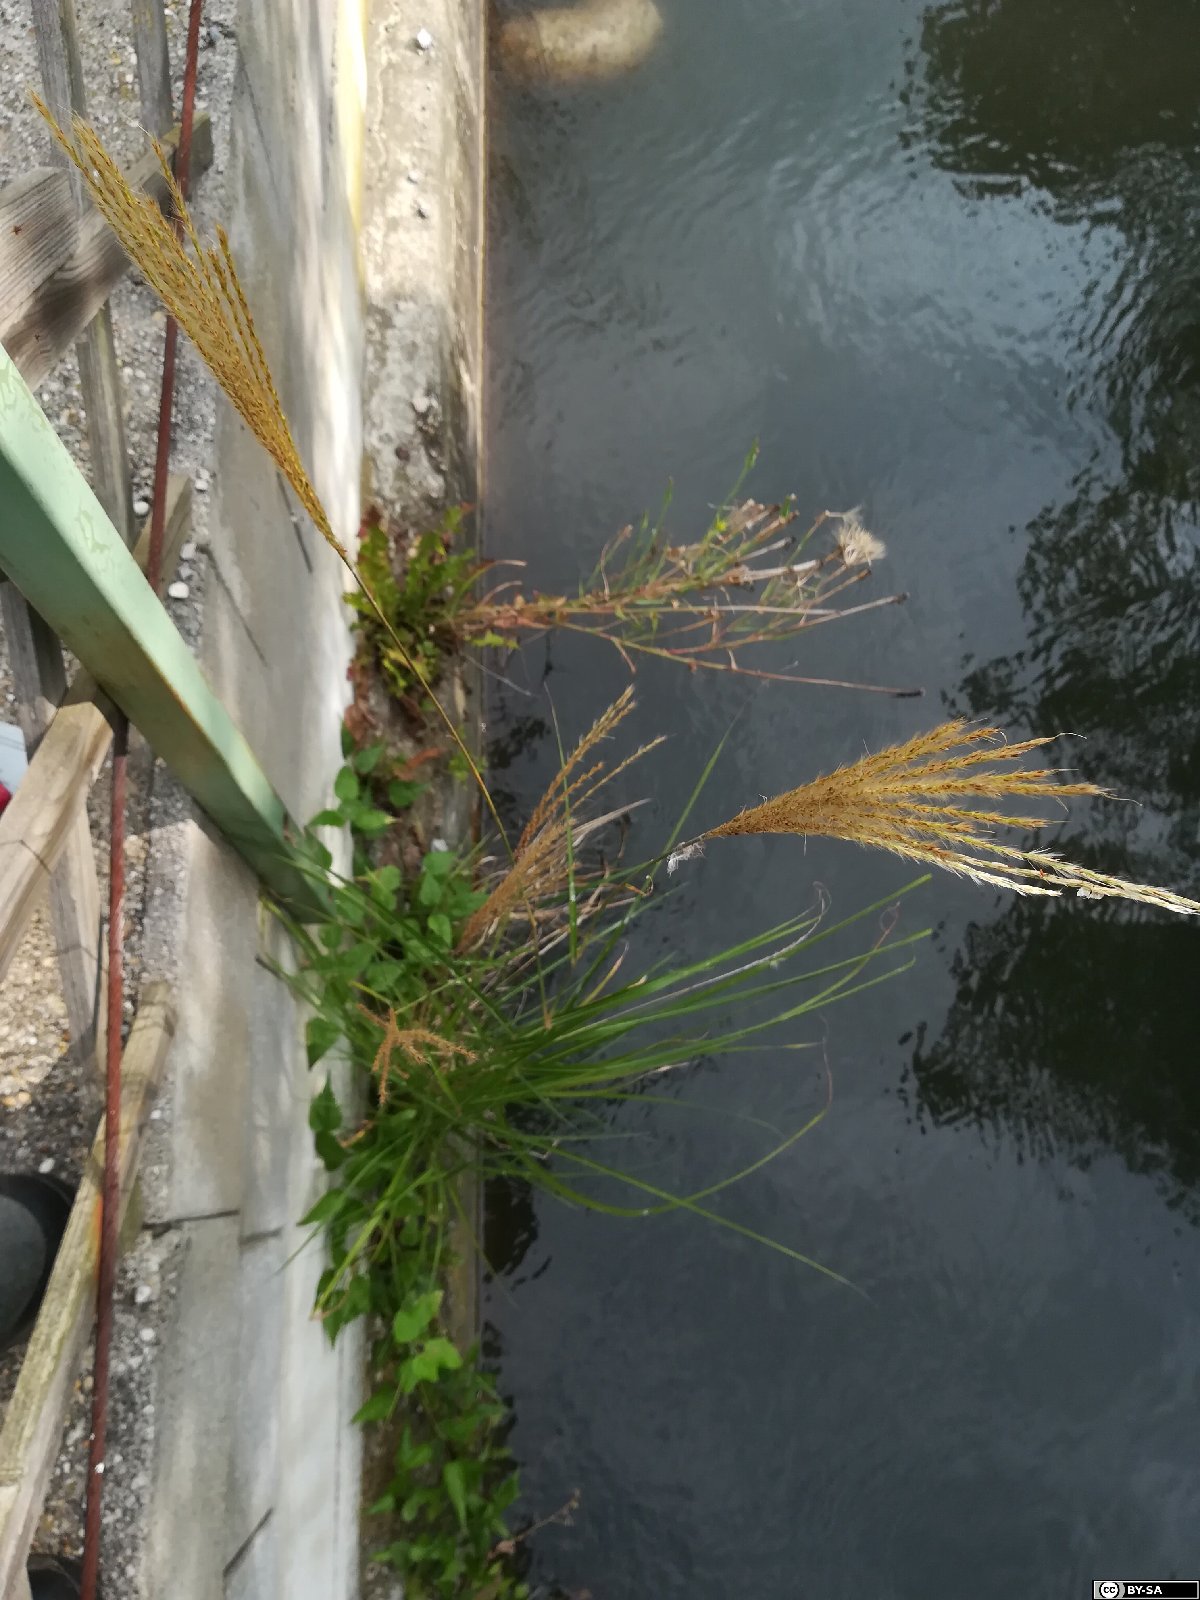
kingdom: Plantae
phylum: Tracheophyta
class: Liliopsida
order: Poales
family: Poaceae
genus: Miscanthus
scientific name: Miscanthus sinensis
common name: Chinese silvergrass
